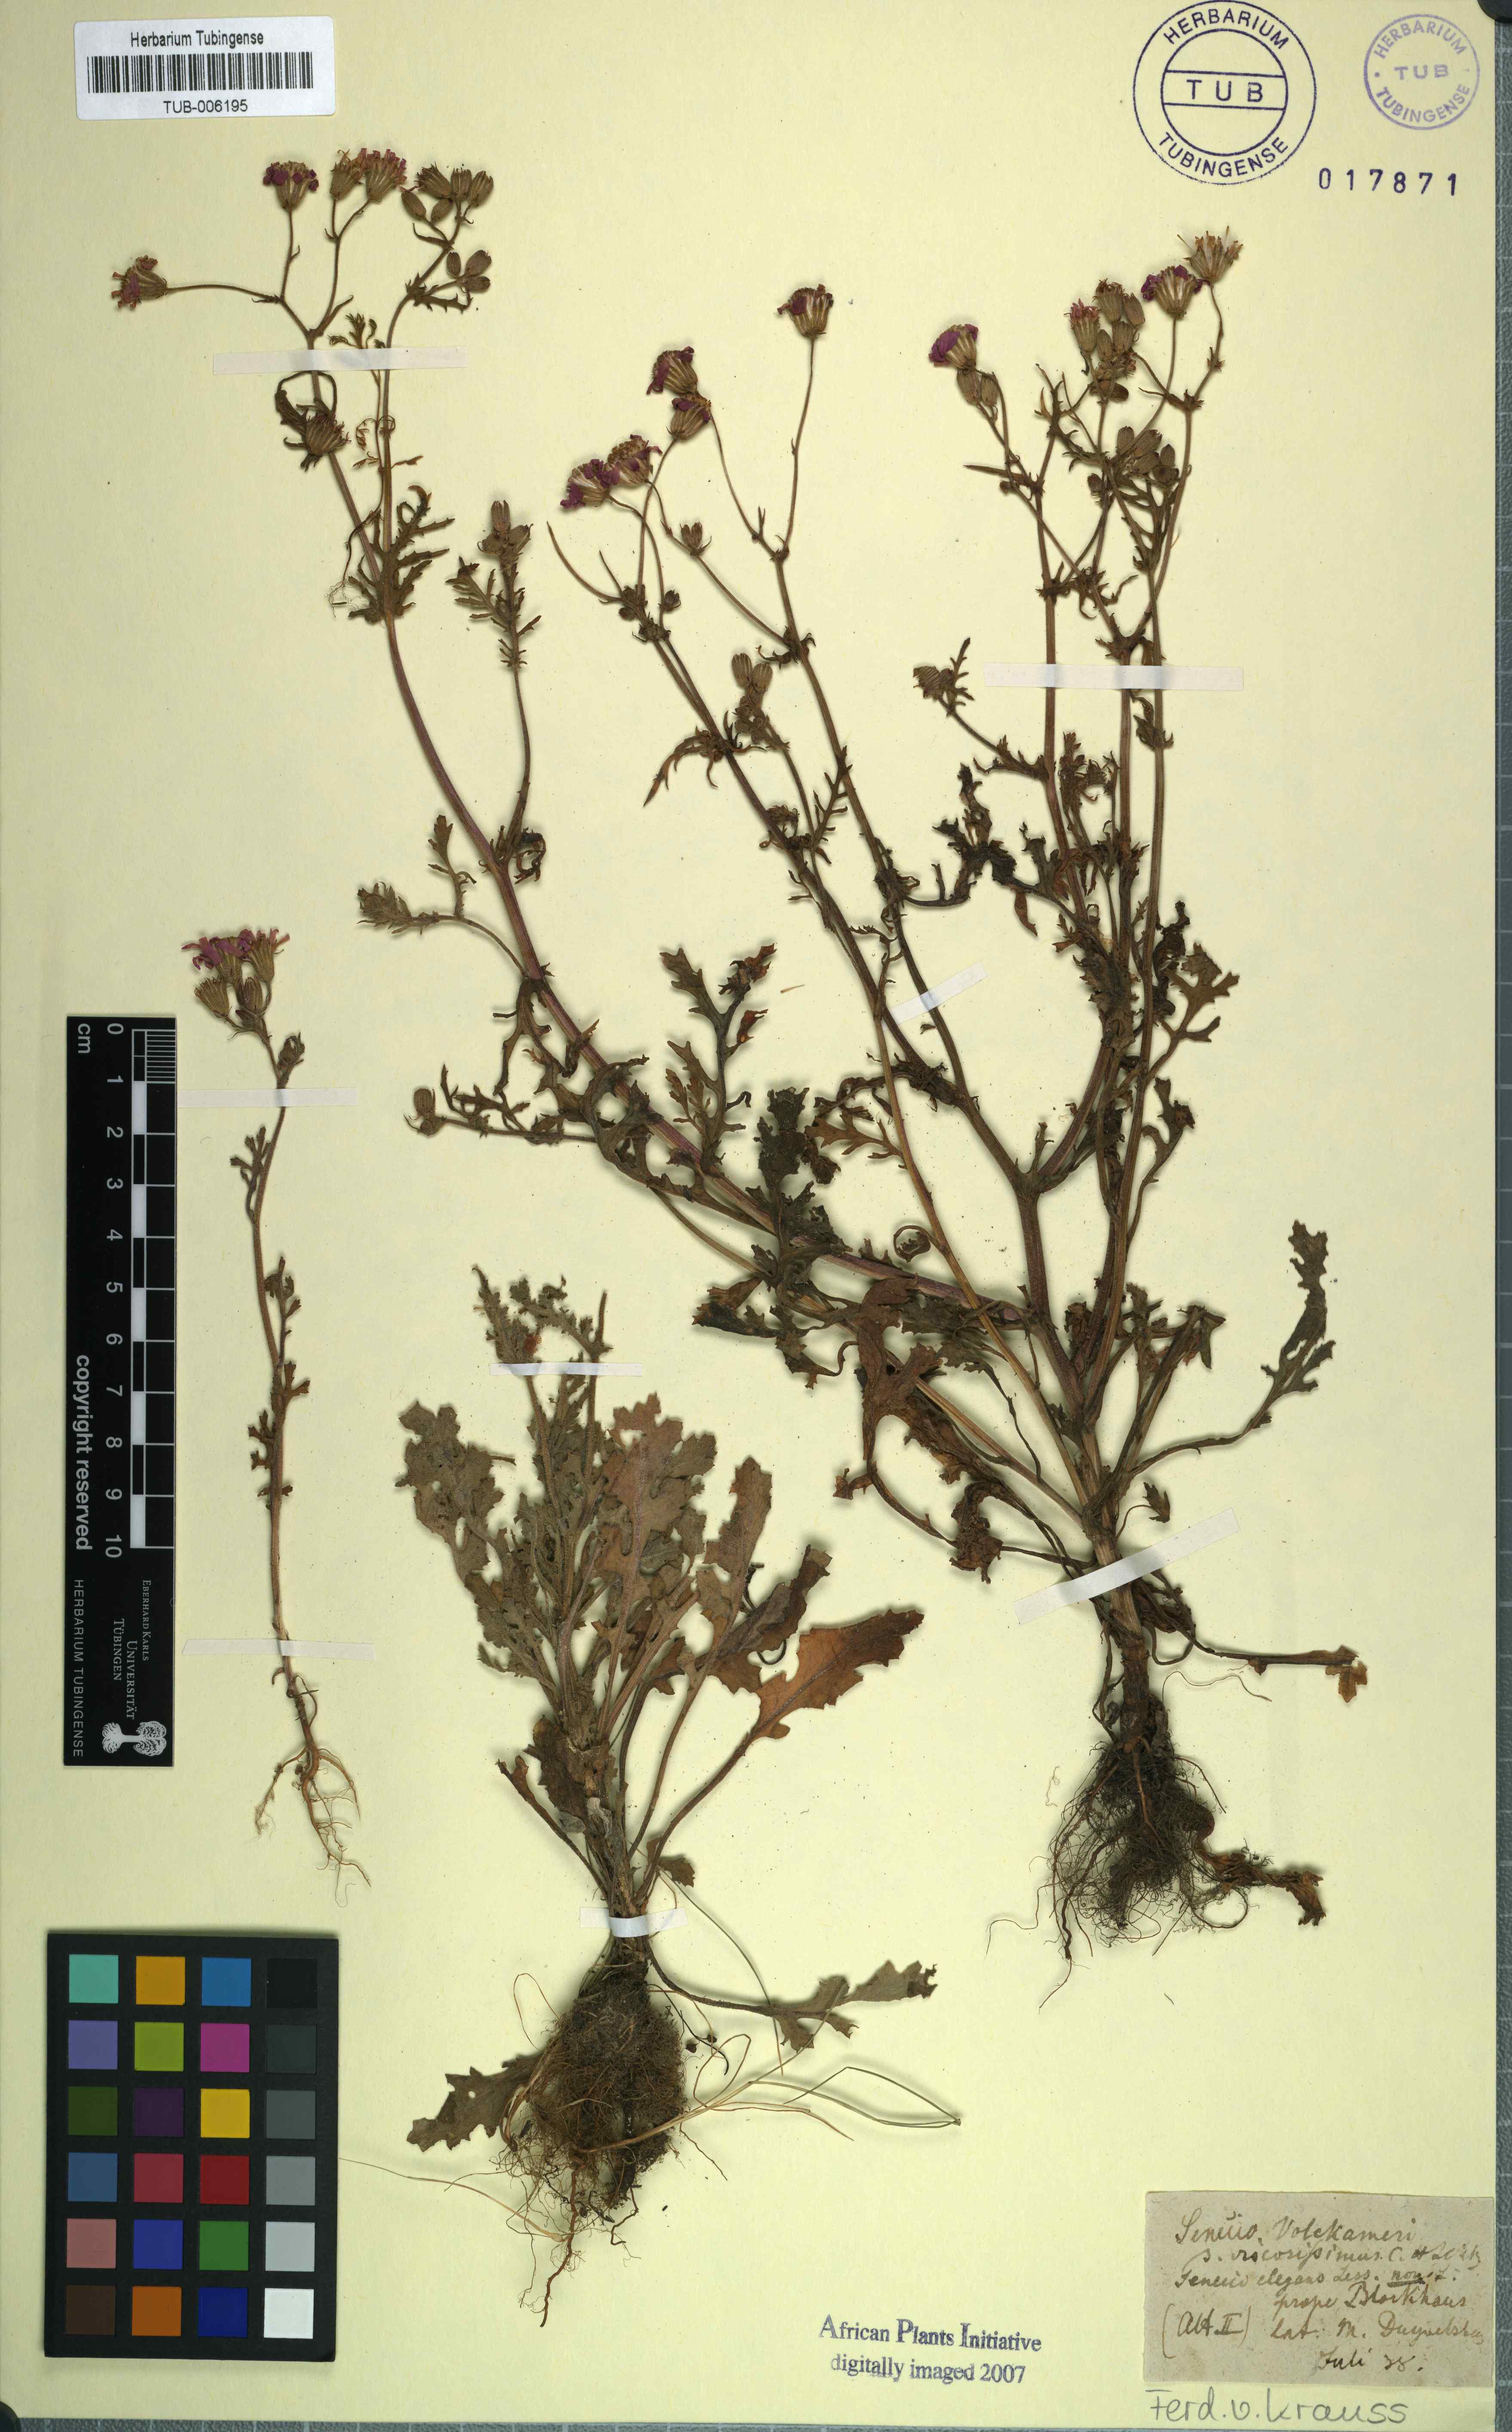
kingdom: Plantae
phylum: Tracheophyta
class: Magnoliopsida
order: Asterales
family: Asteraceae
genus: Senecio
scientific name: Senecio arenarius
